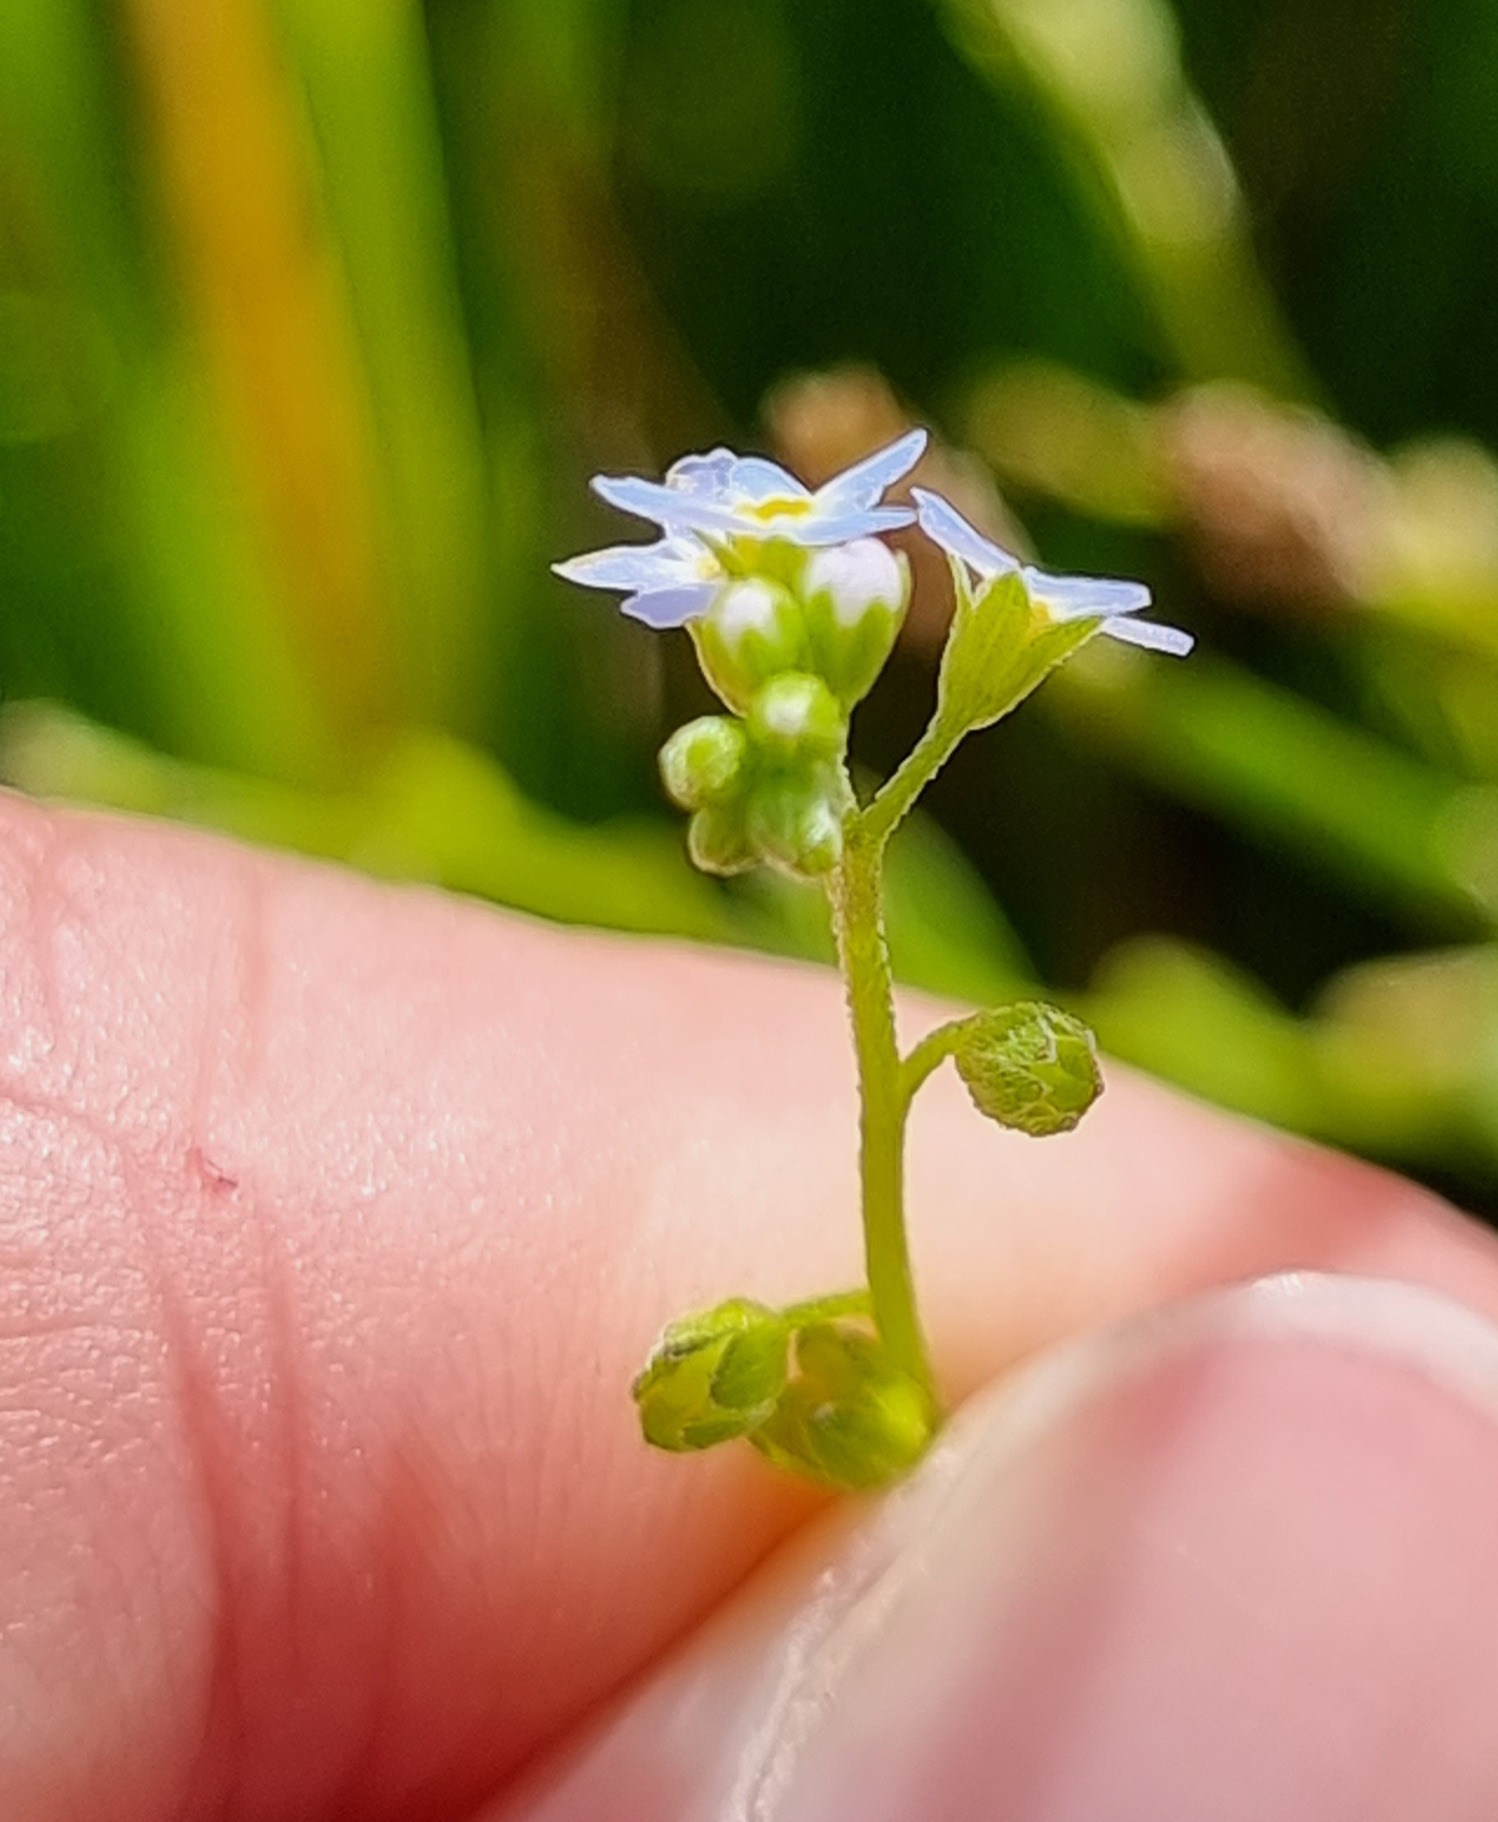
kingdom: Plantae
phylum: Tracheophyta
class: Magnoliopsida
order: Boraginales
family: Boraginaceae
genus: Myosotis
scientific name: Myosotis laxa
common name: Sump-forglemmigej
